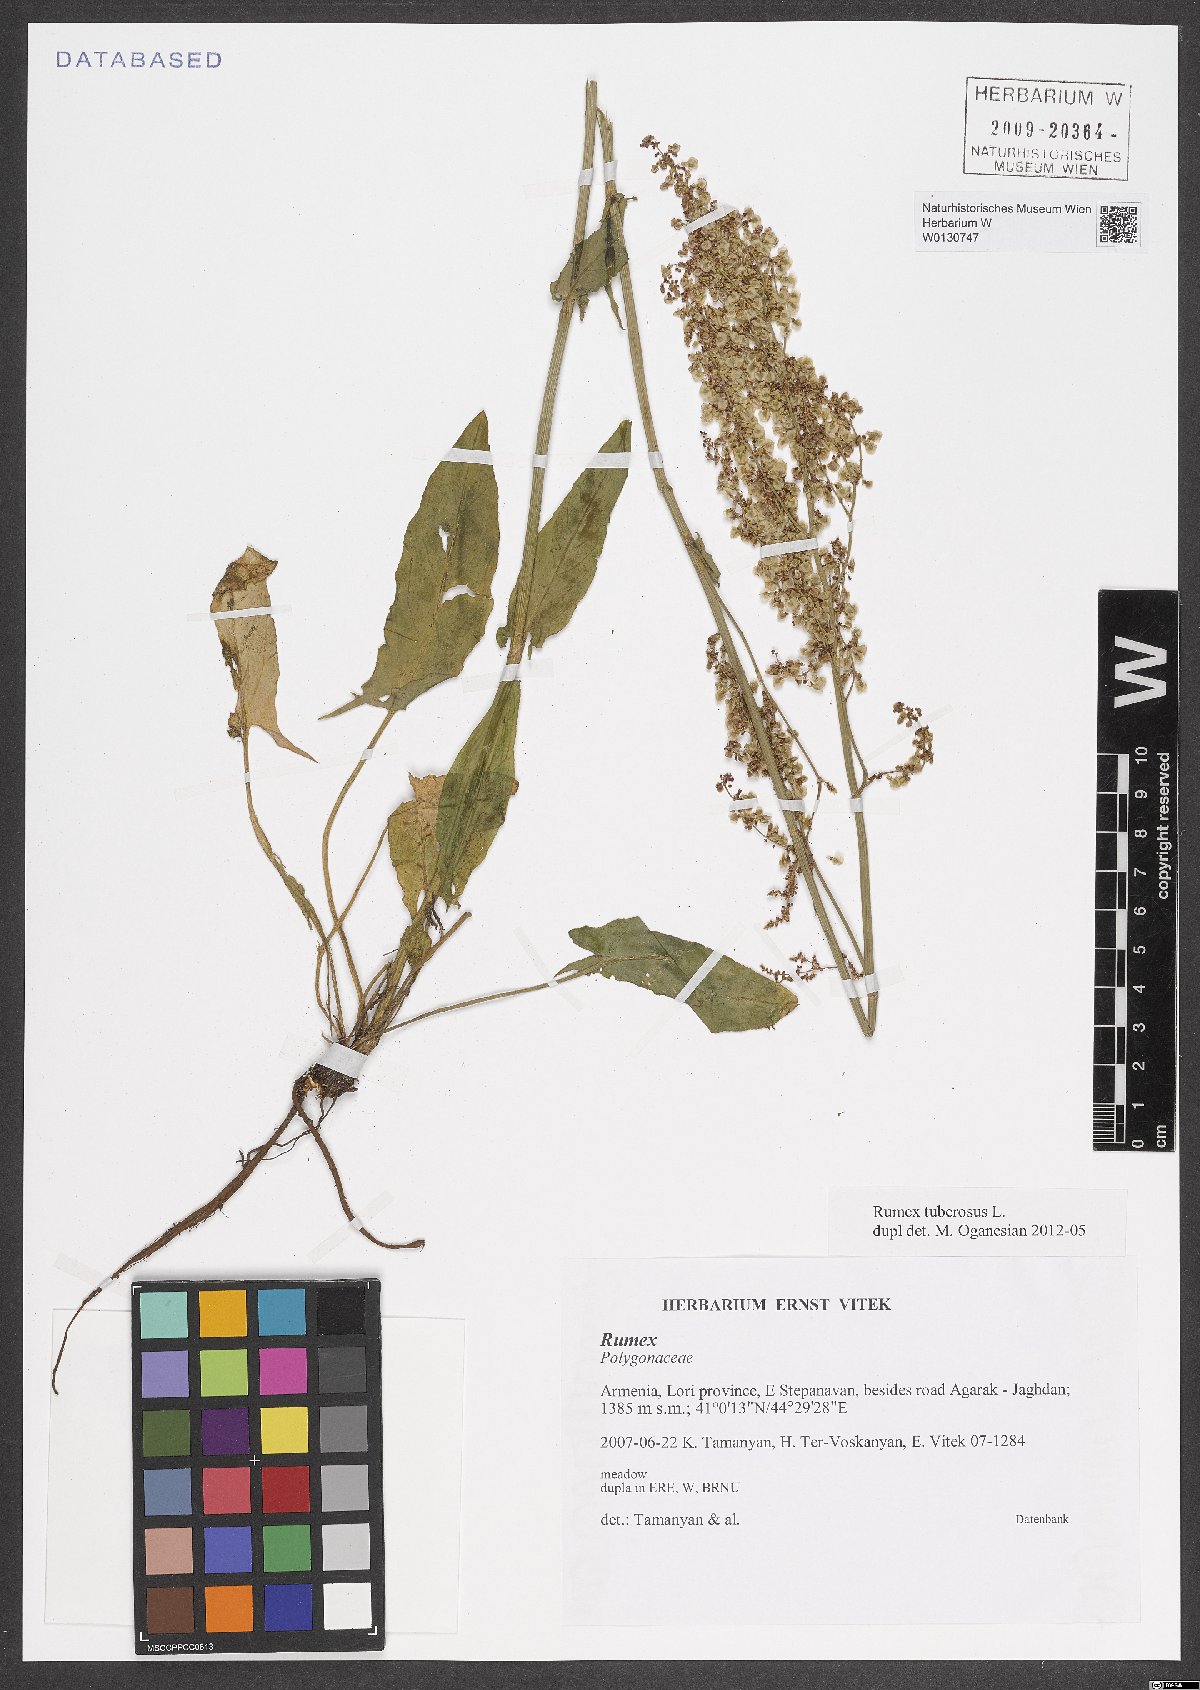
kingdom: Plantae
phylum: Tracheophyta
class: Magnoliopsida
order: Caryophyllales
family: Polygonaceae
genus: Rumex
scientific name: Rumex tuberosus
